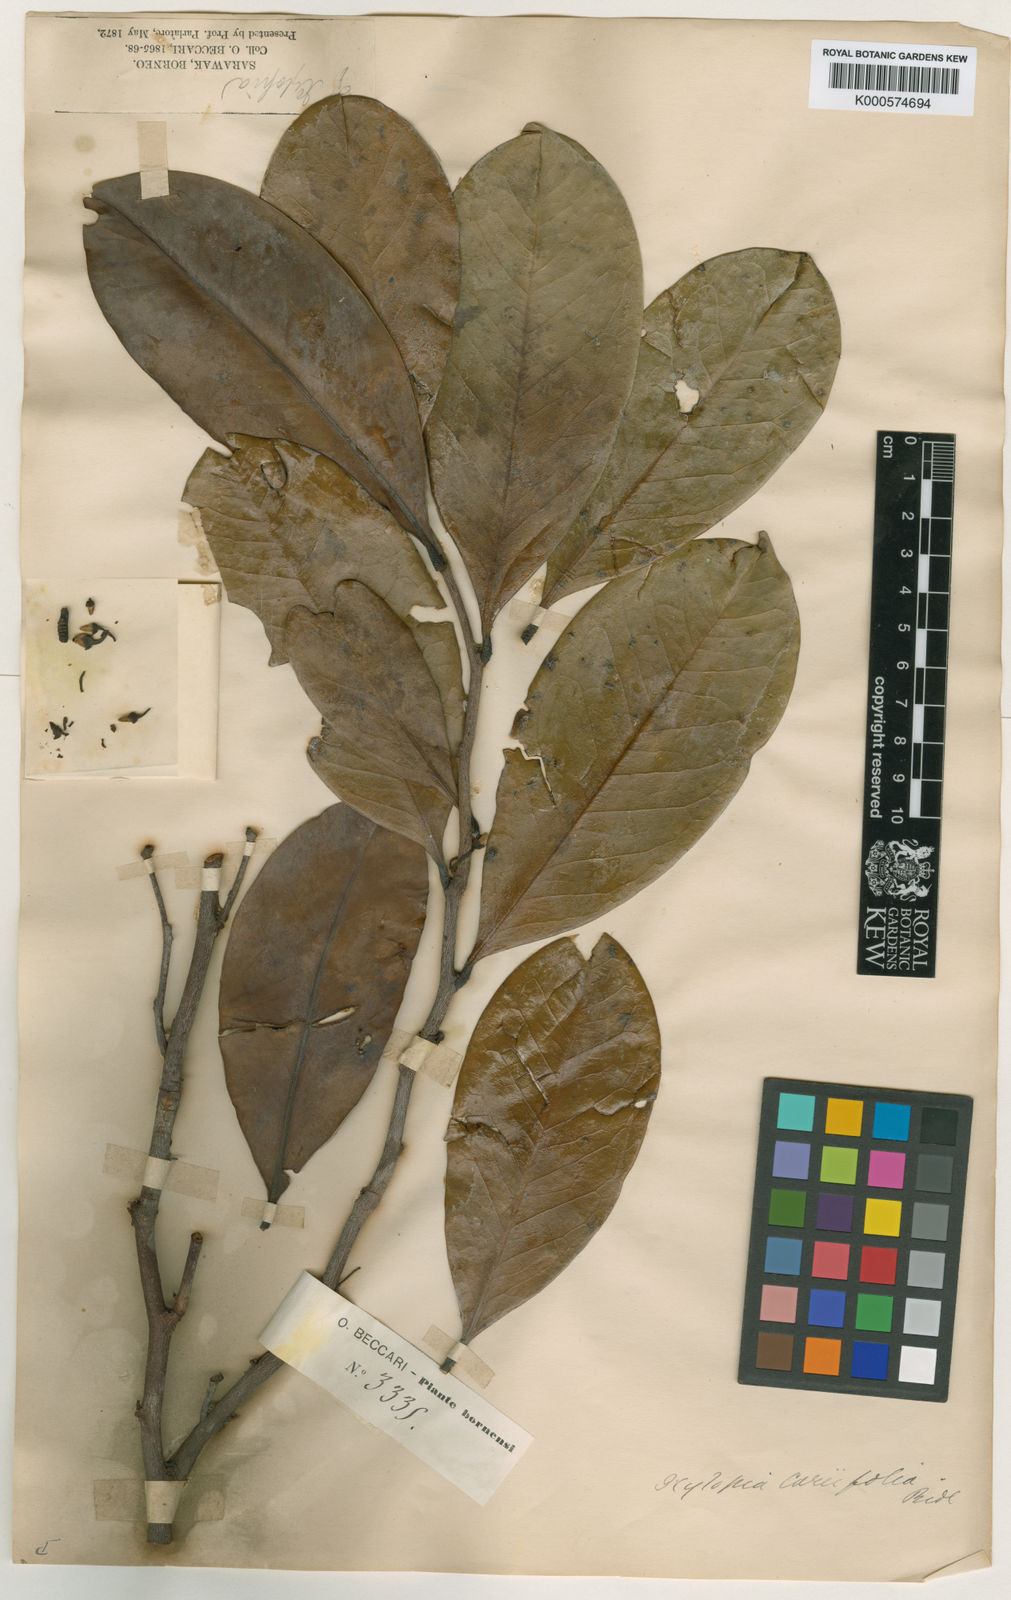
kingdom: Plantae
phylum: Tracheophyta
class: Magnoliopsida
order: Magnoliales
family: Annonaceae
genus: Xylopia
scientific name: Xylopia coriifolia
